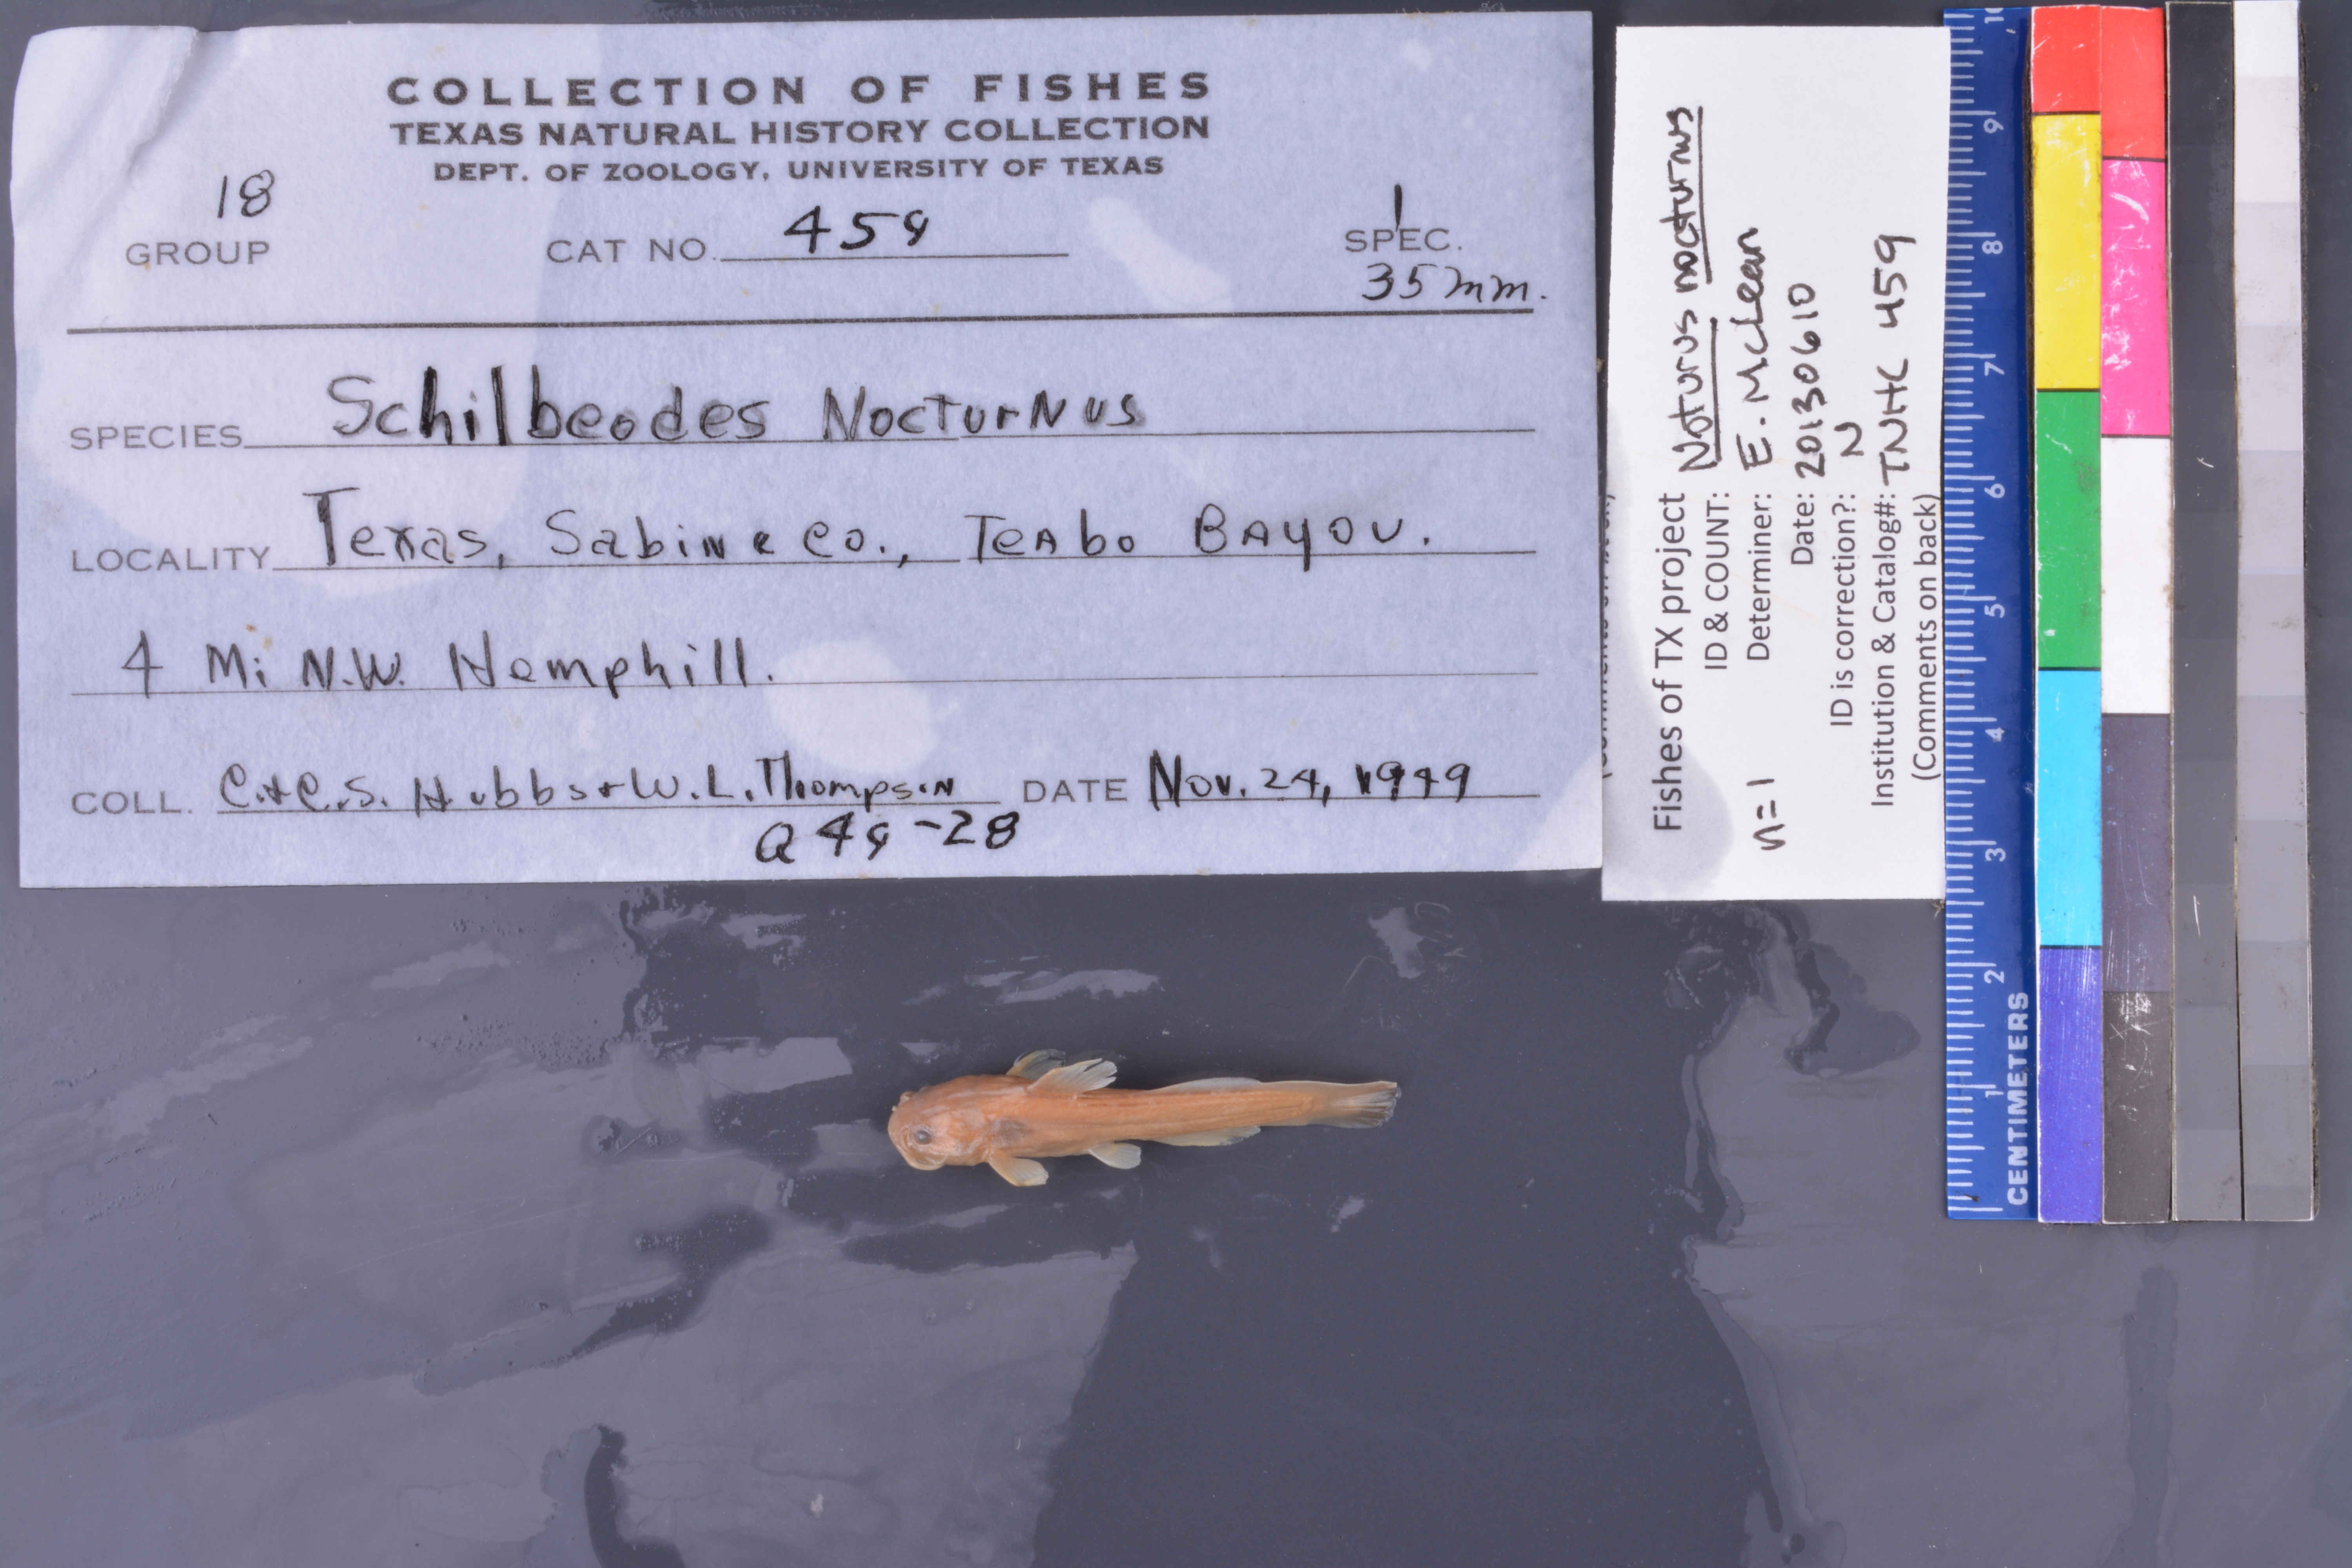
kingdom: Animalia
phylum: Chordata
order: Siluriformes
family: Ictaluridae
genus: Noturus
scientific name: Noturus nocturnus
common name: Freckled madtom
